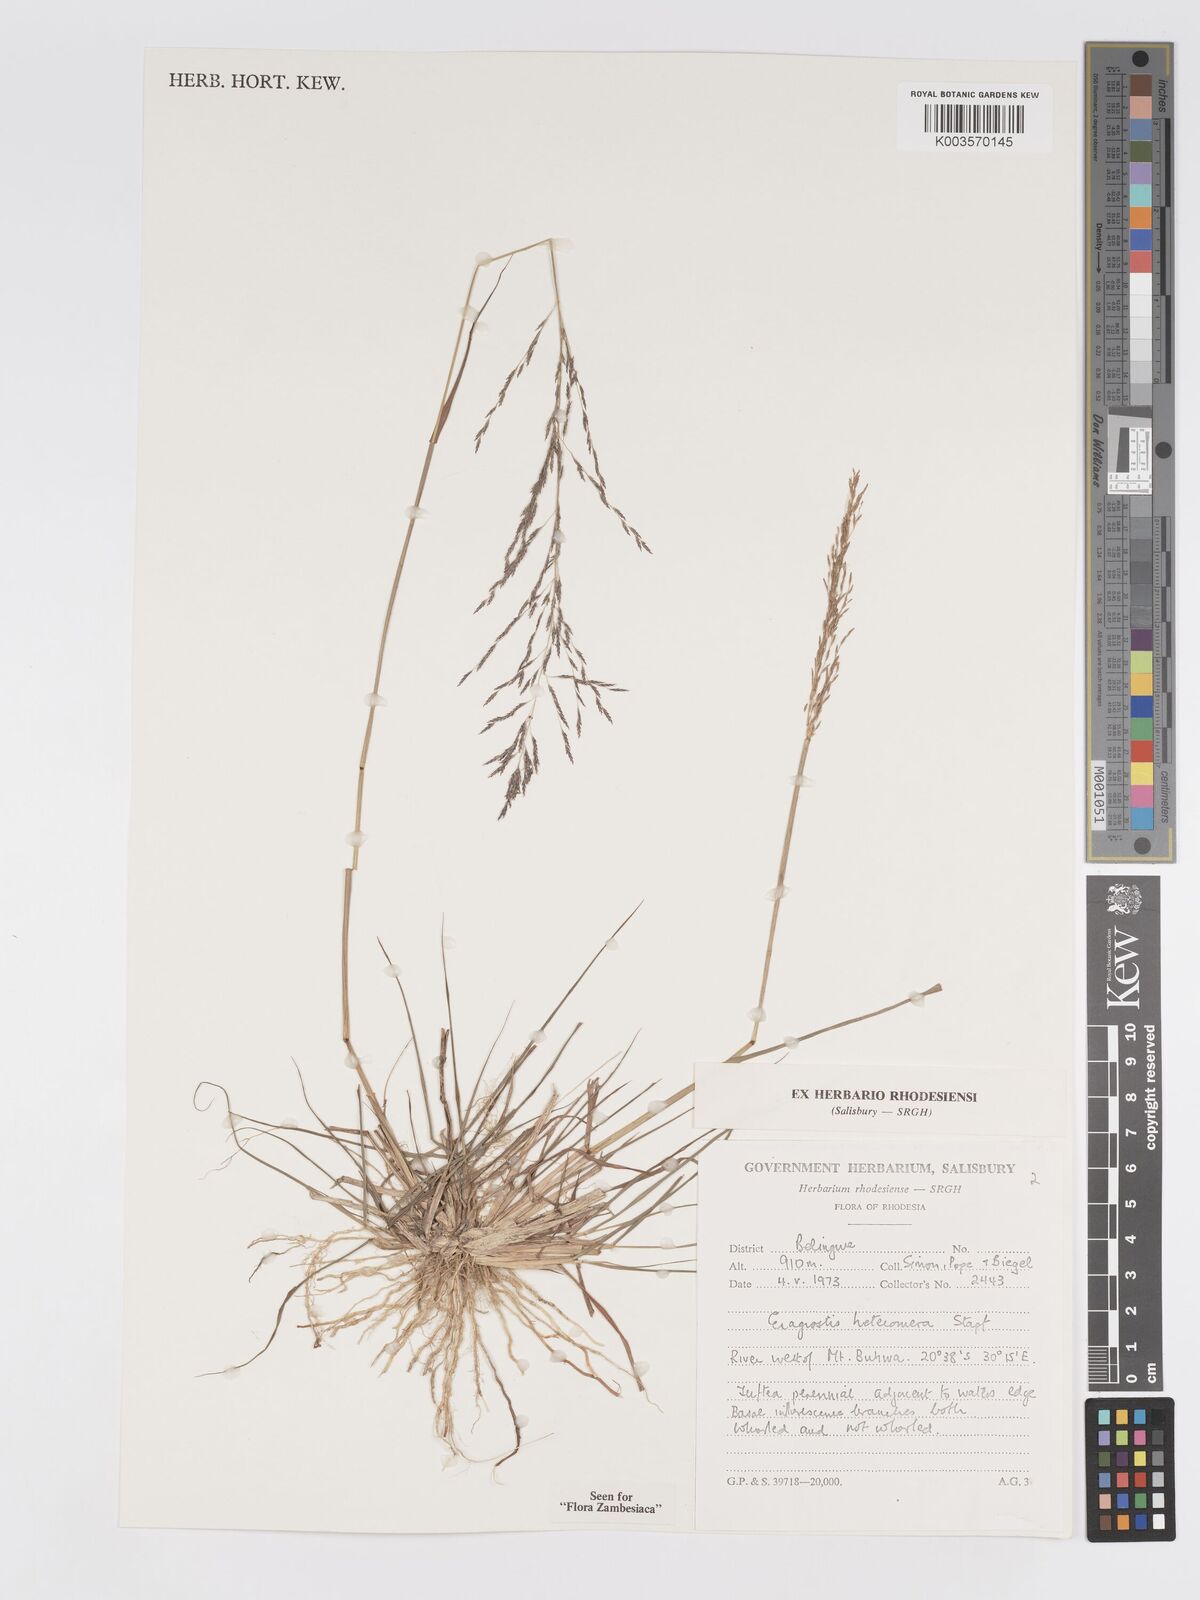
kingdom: Plantae
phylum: Tracheophyta
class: Liliopsida
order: Poales
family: Poaceae
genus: Eragrostis
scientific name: Eragrostis heteromera
